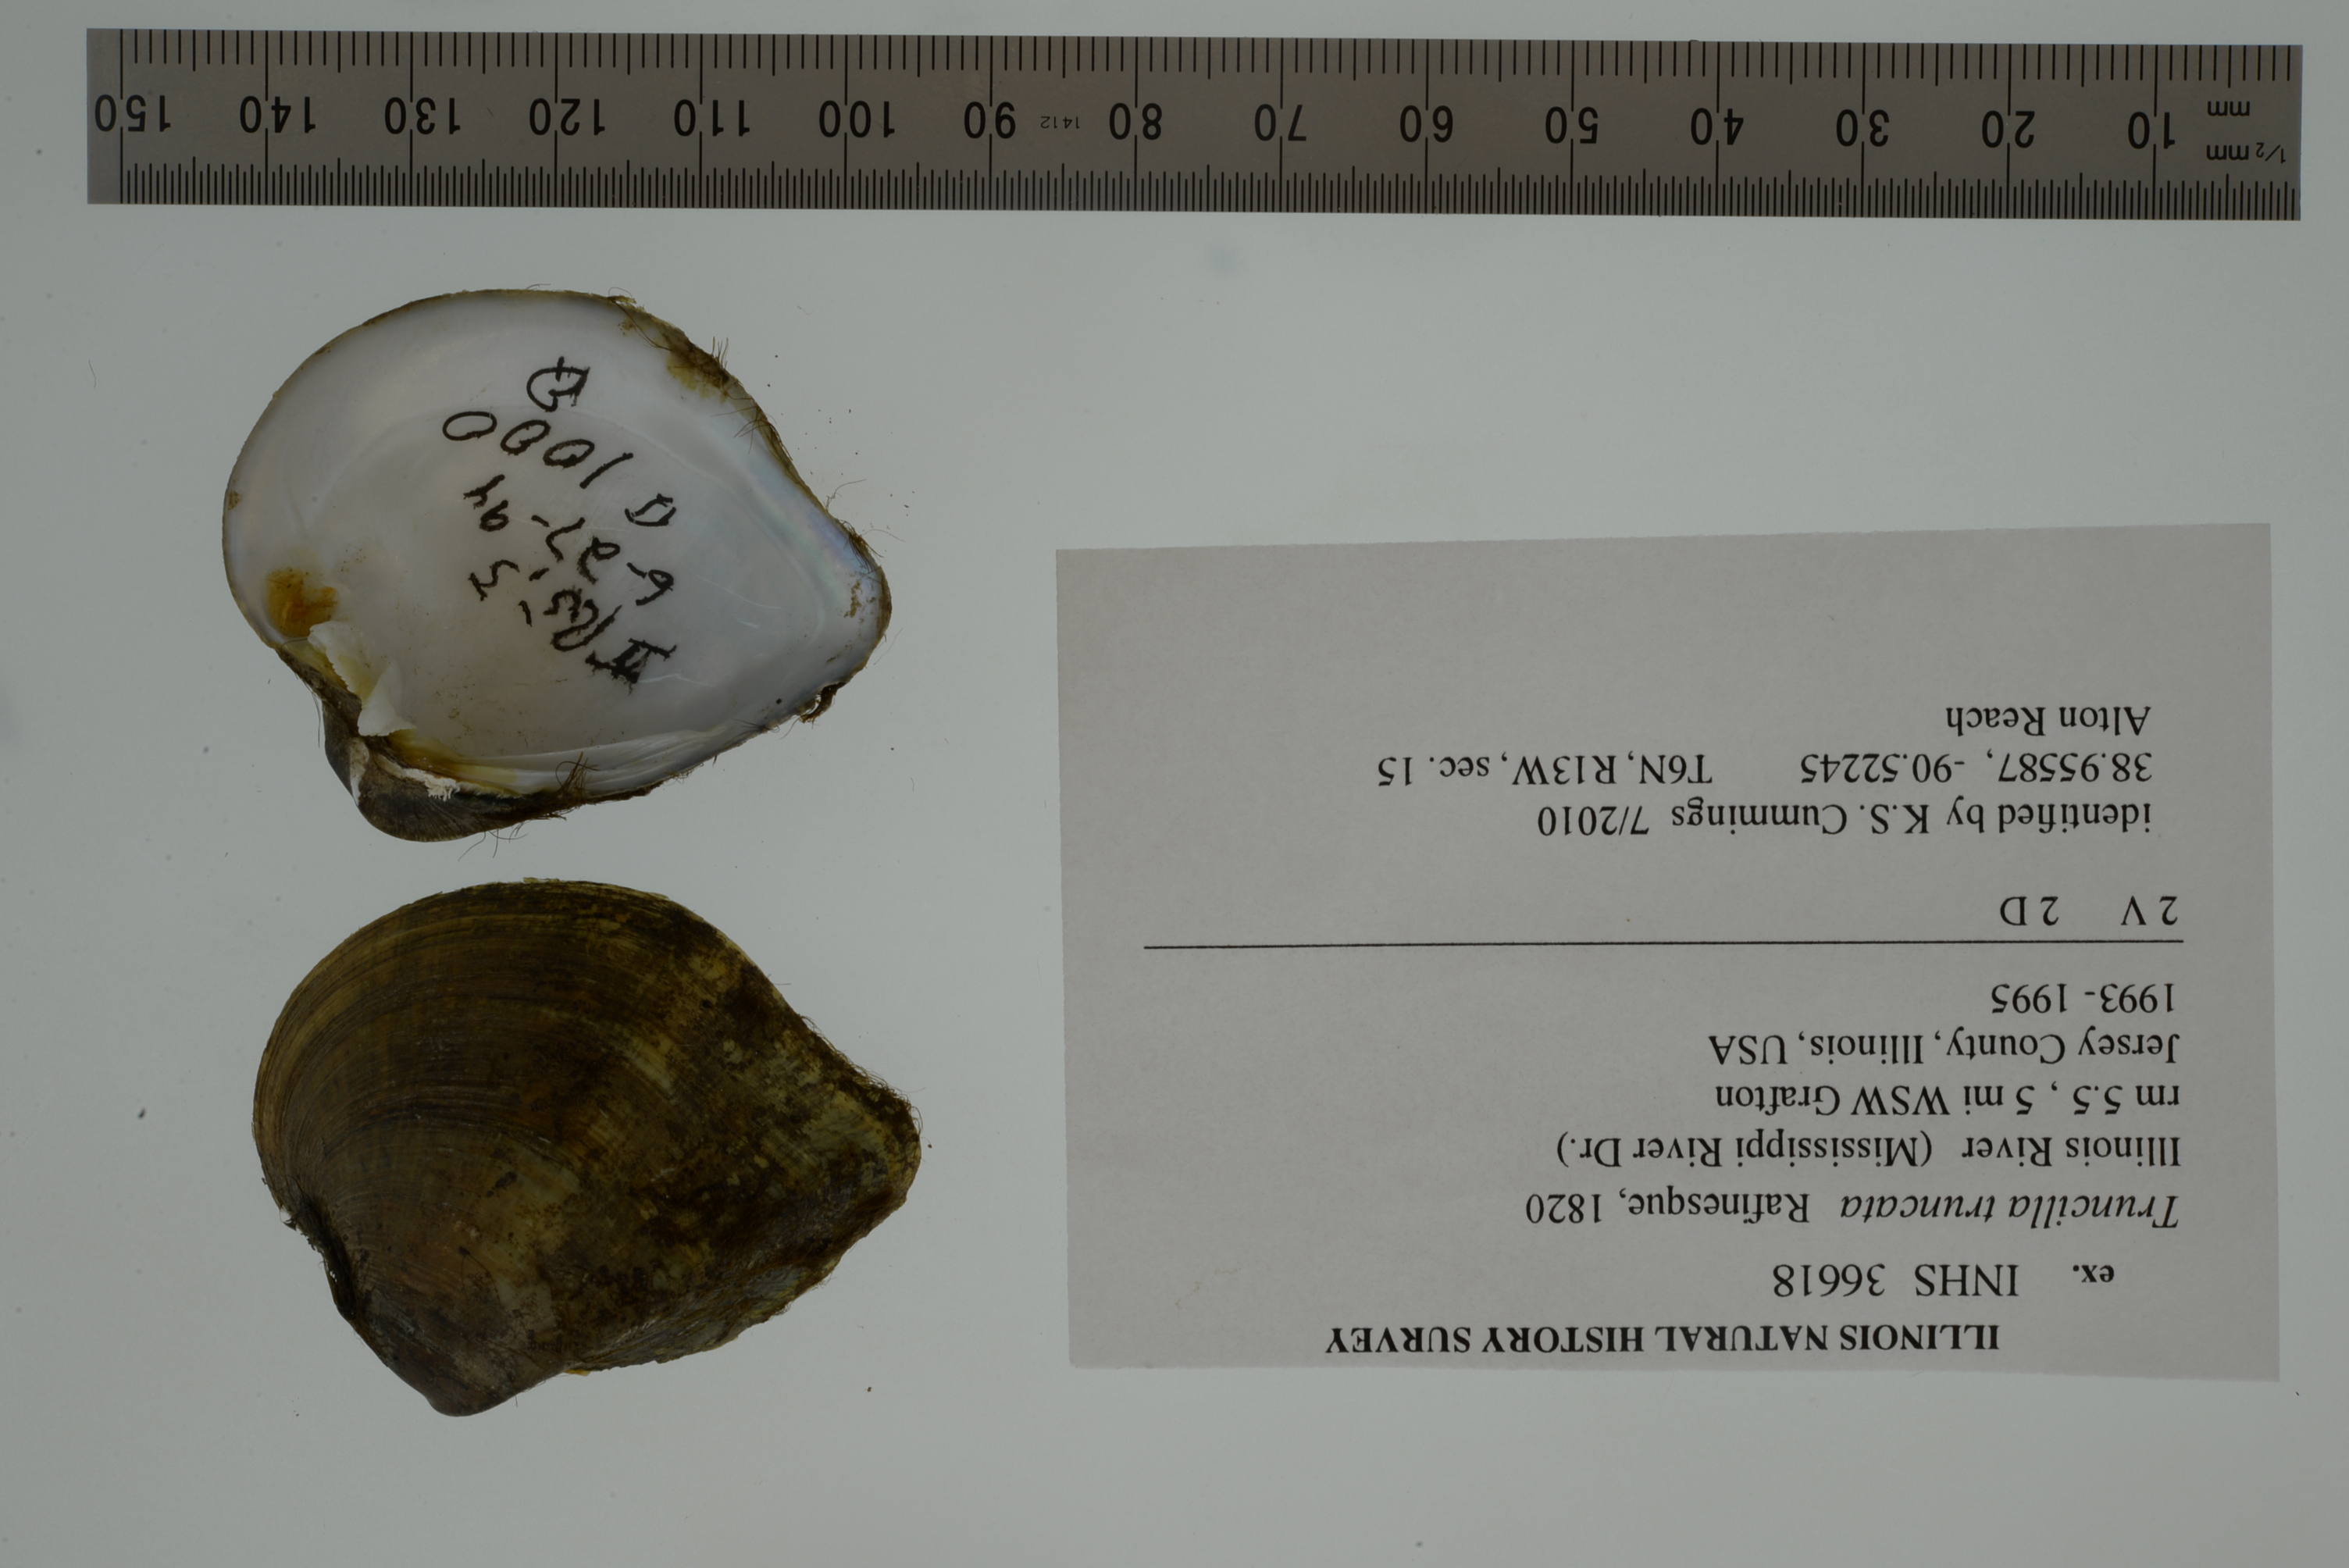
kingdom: Animalia
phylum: Mollusca
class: Bivalvia
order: Unionida
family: Unionidae
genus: Truncilla
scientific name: Truncilla truncata
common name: Deertoe
